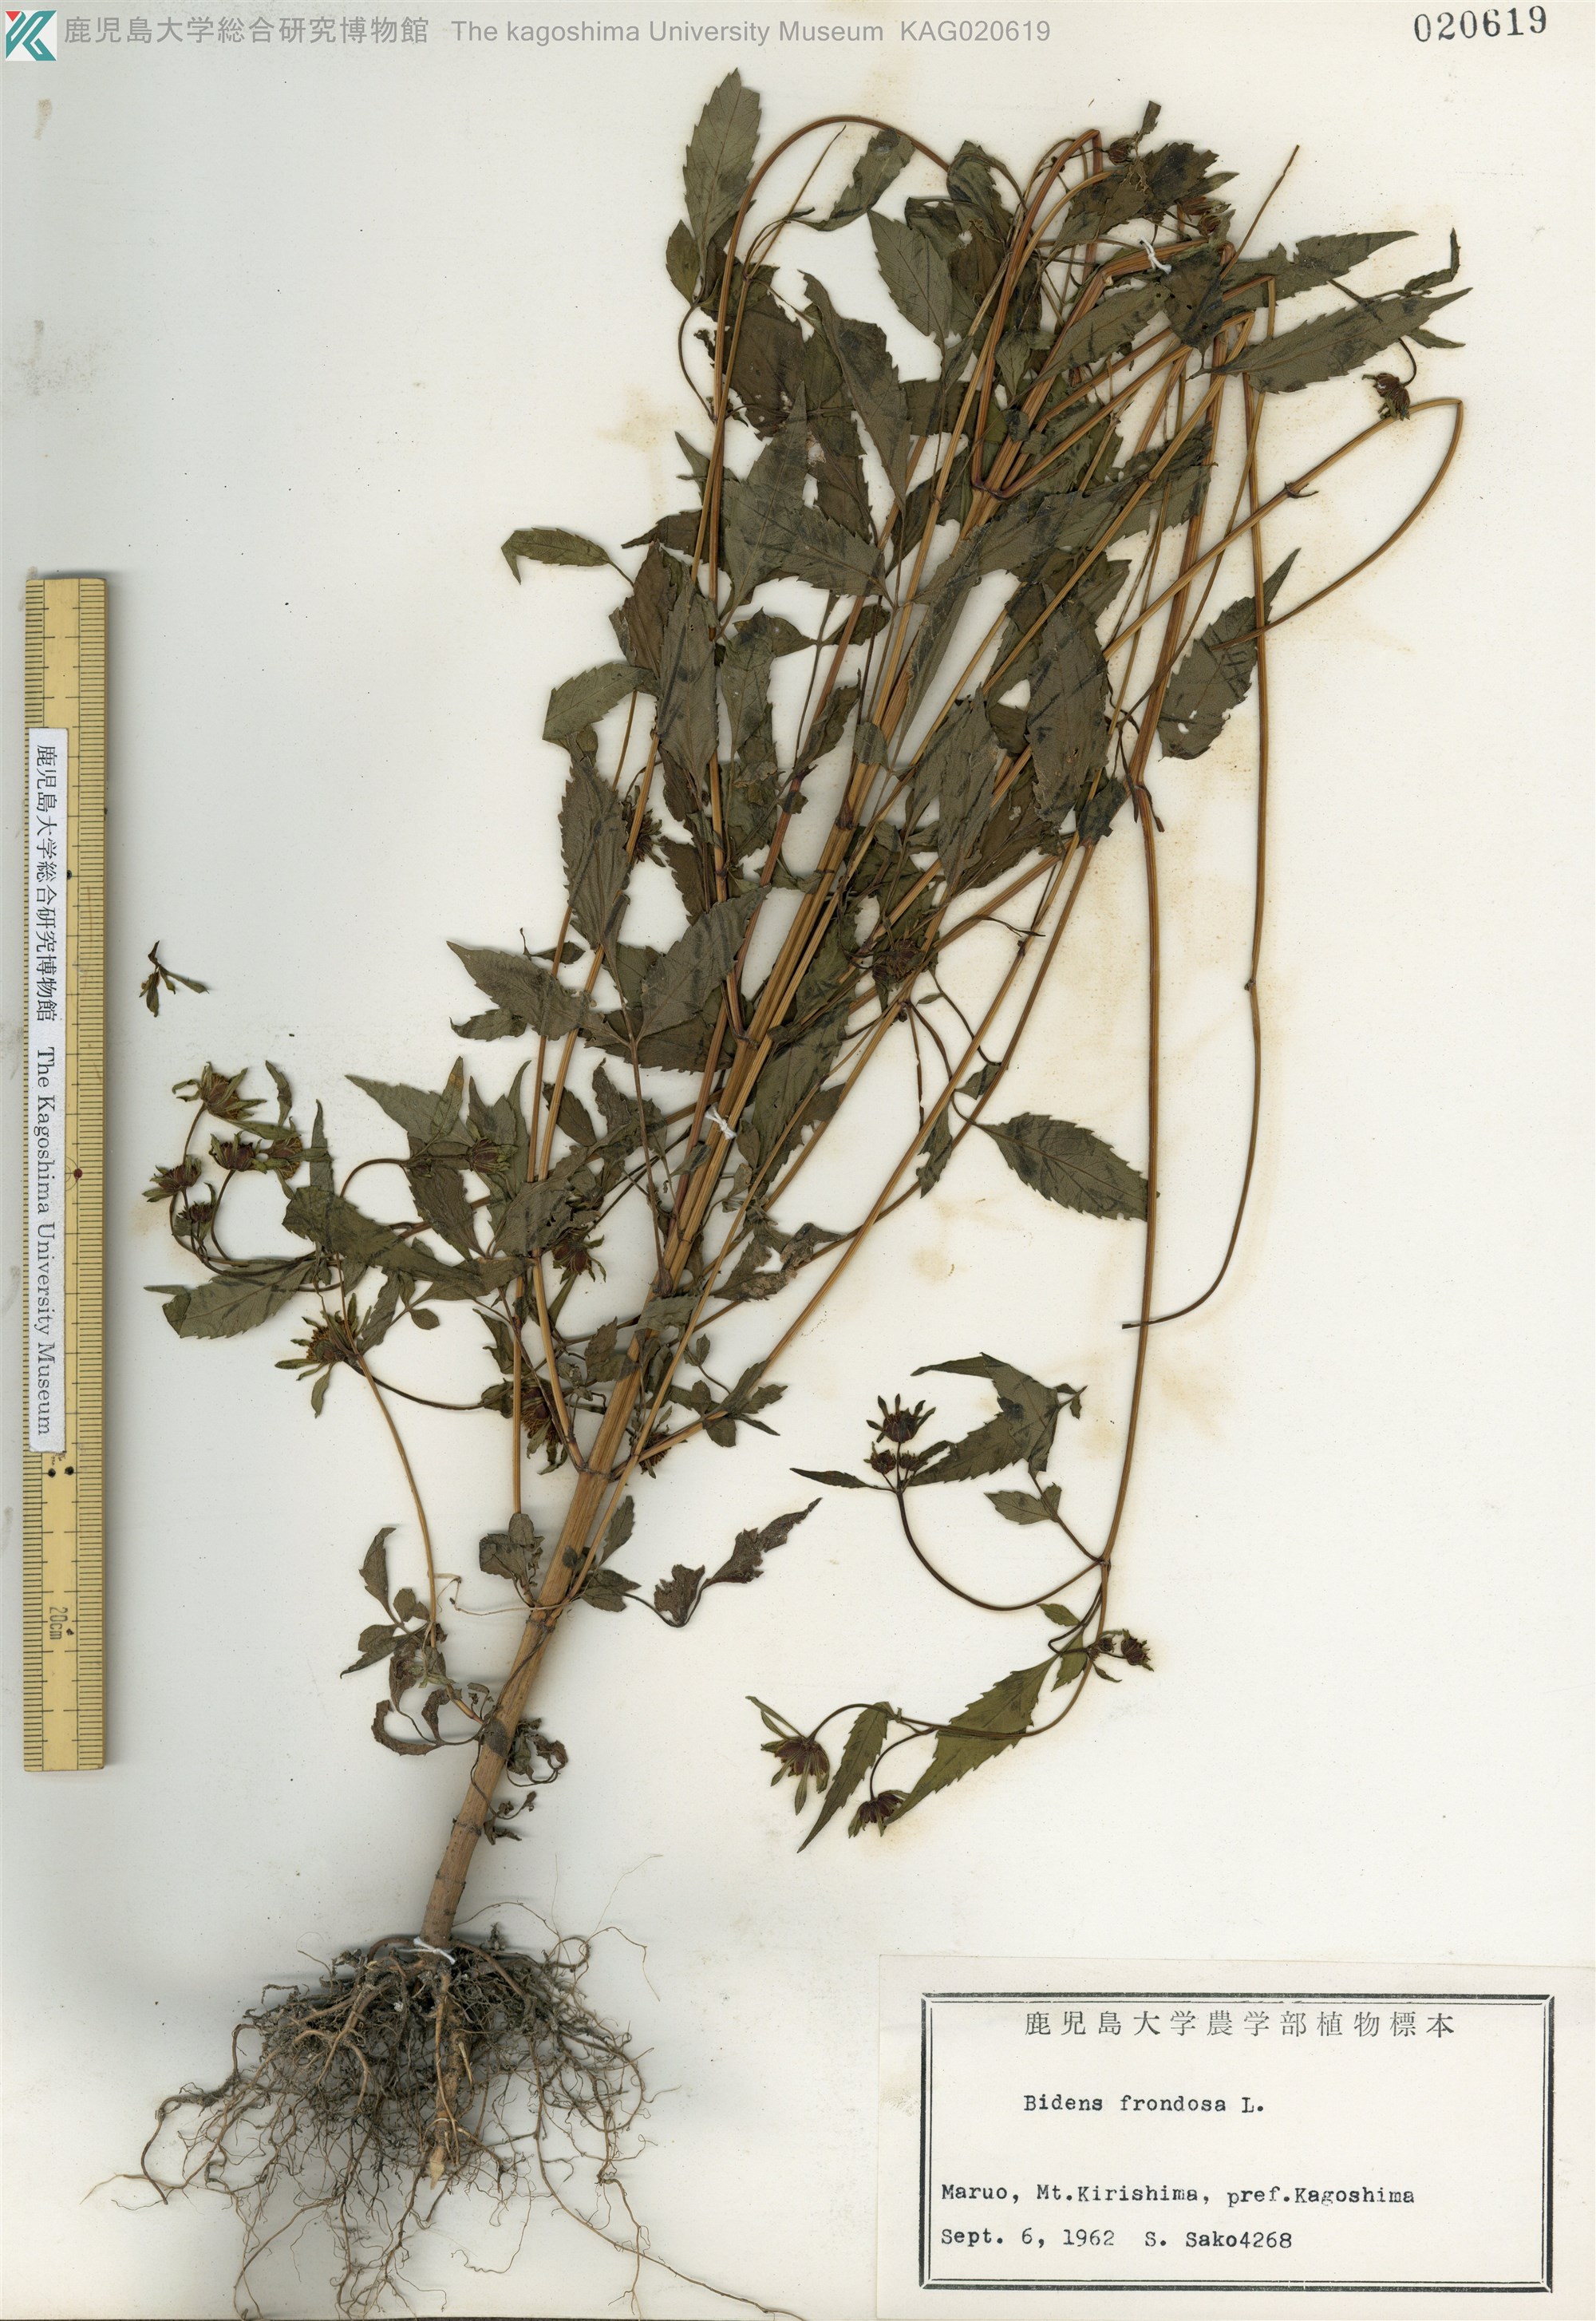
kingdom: Plantae
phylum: Tracheophyta
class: Magnoliopsida
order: Asterales
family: Asteraceae
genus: Bidens
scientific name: Bidens frondosa
